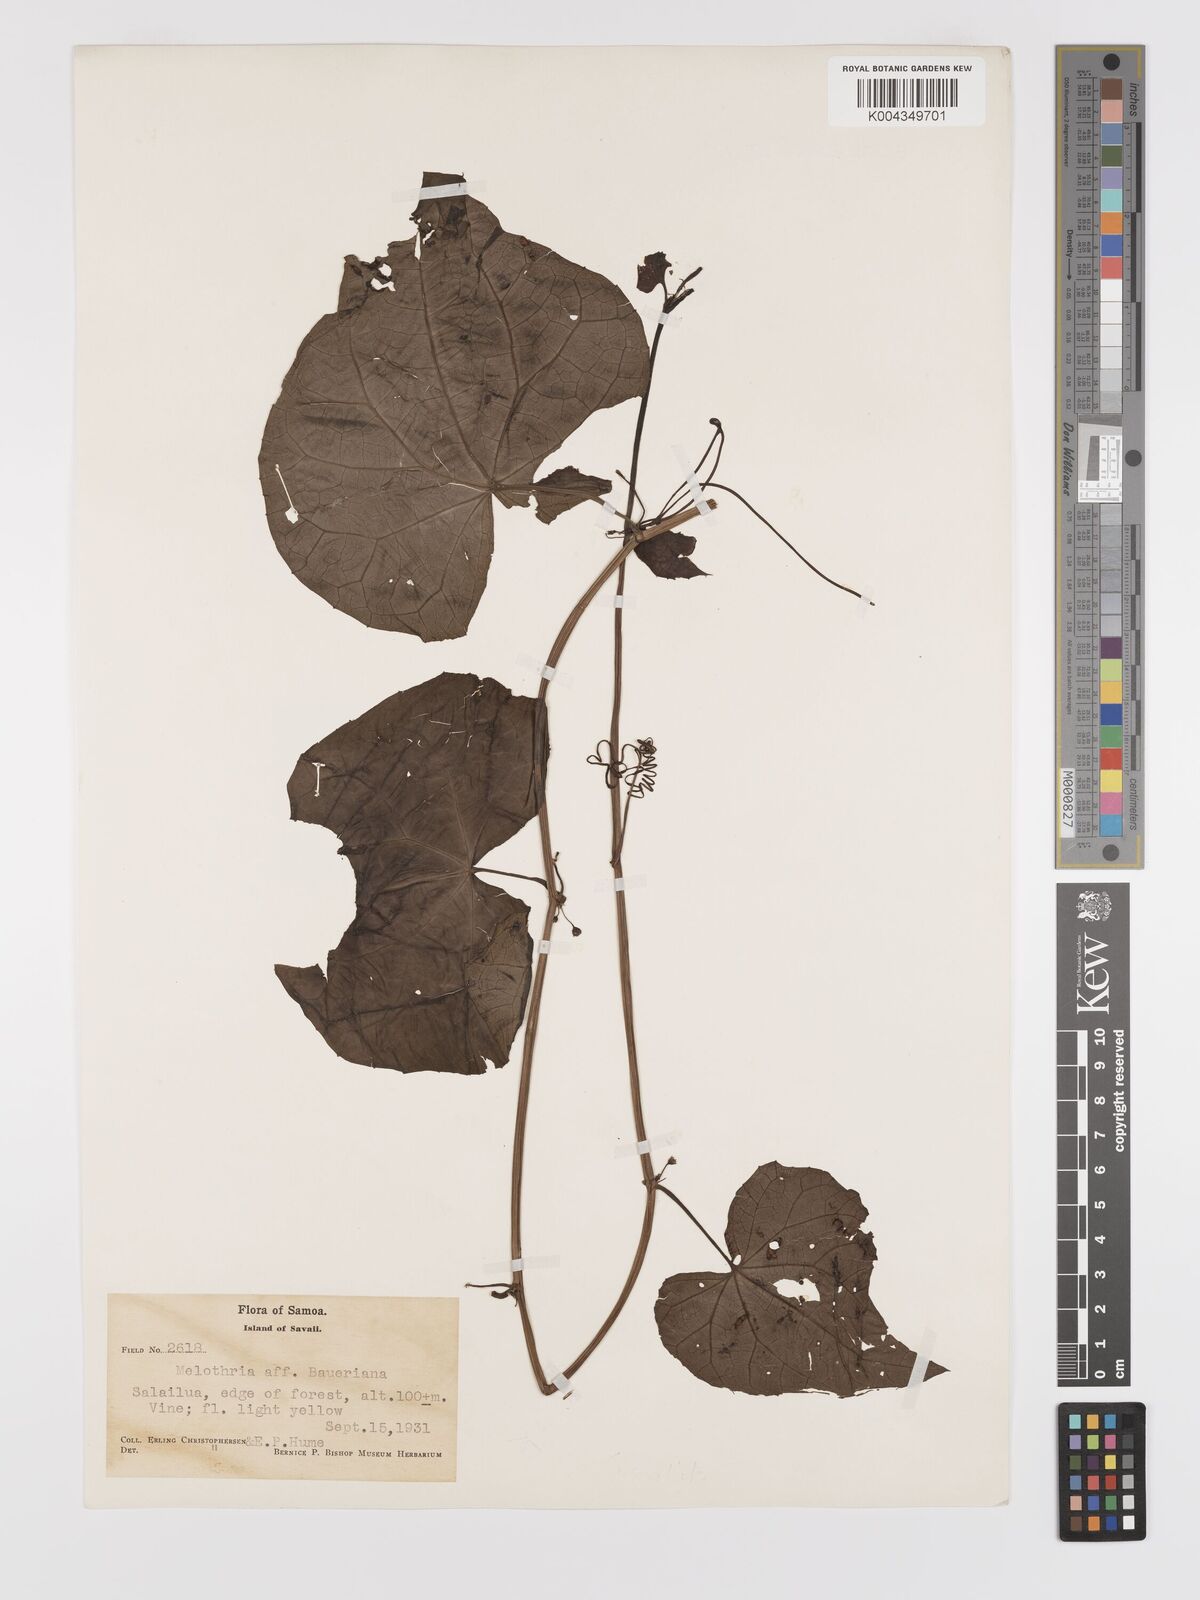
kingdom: Plantae
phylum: Tracheophyta
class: Magnoliopsida
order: Cucurbitales
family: Cucurbitaceae
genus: Zehneria
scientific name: Zehneria
